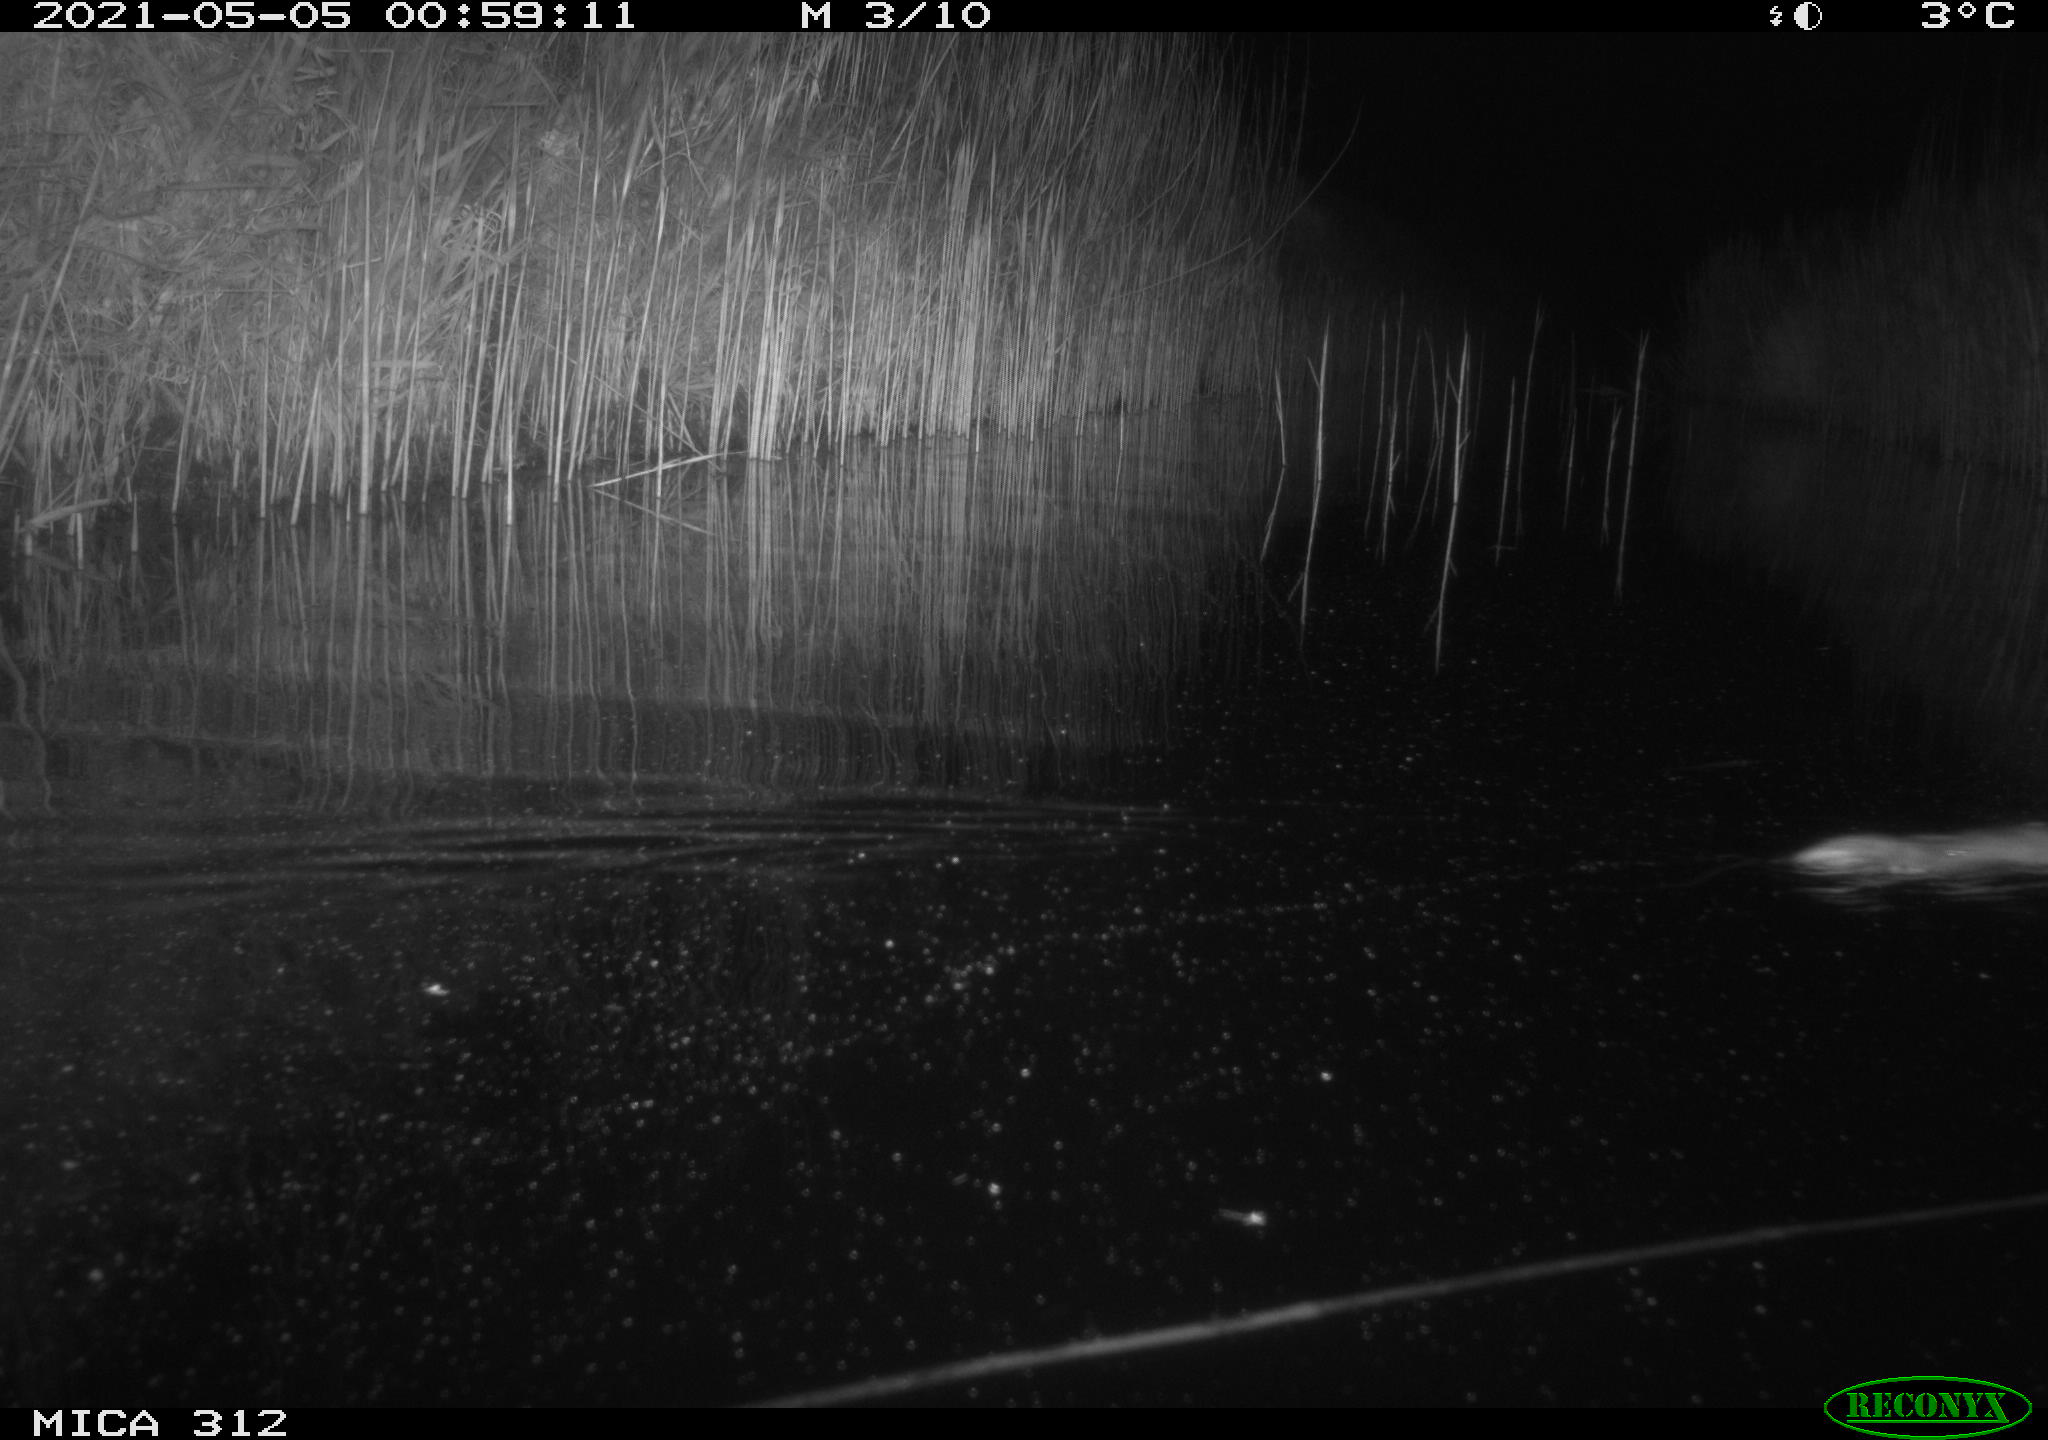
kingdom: Animalia
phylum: Chordata
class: Mammalia
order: Rodentia
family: Muridae
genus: Rattus
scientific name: Rattus norvegicus
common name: Brown rat
